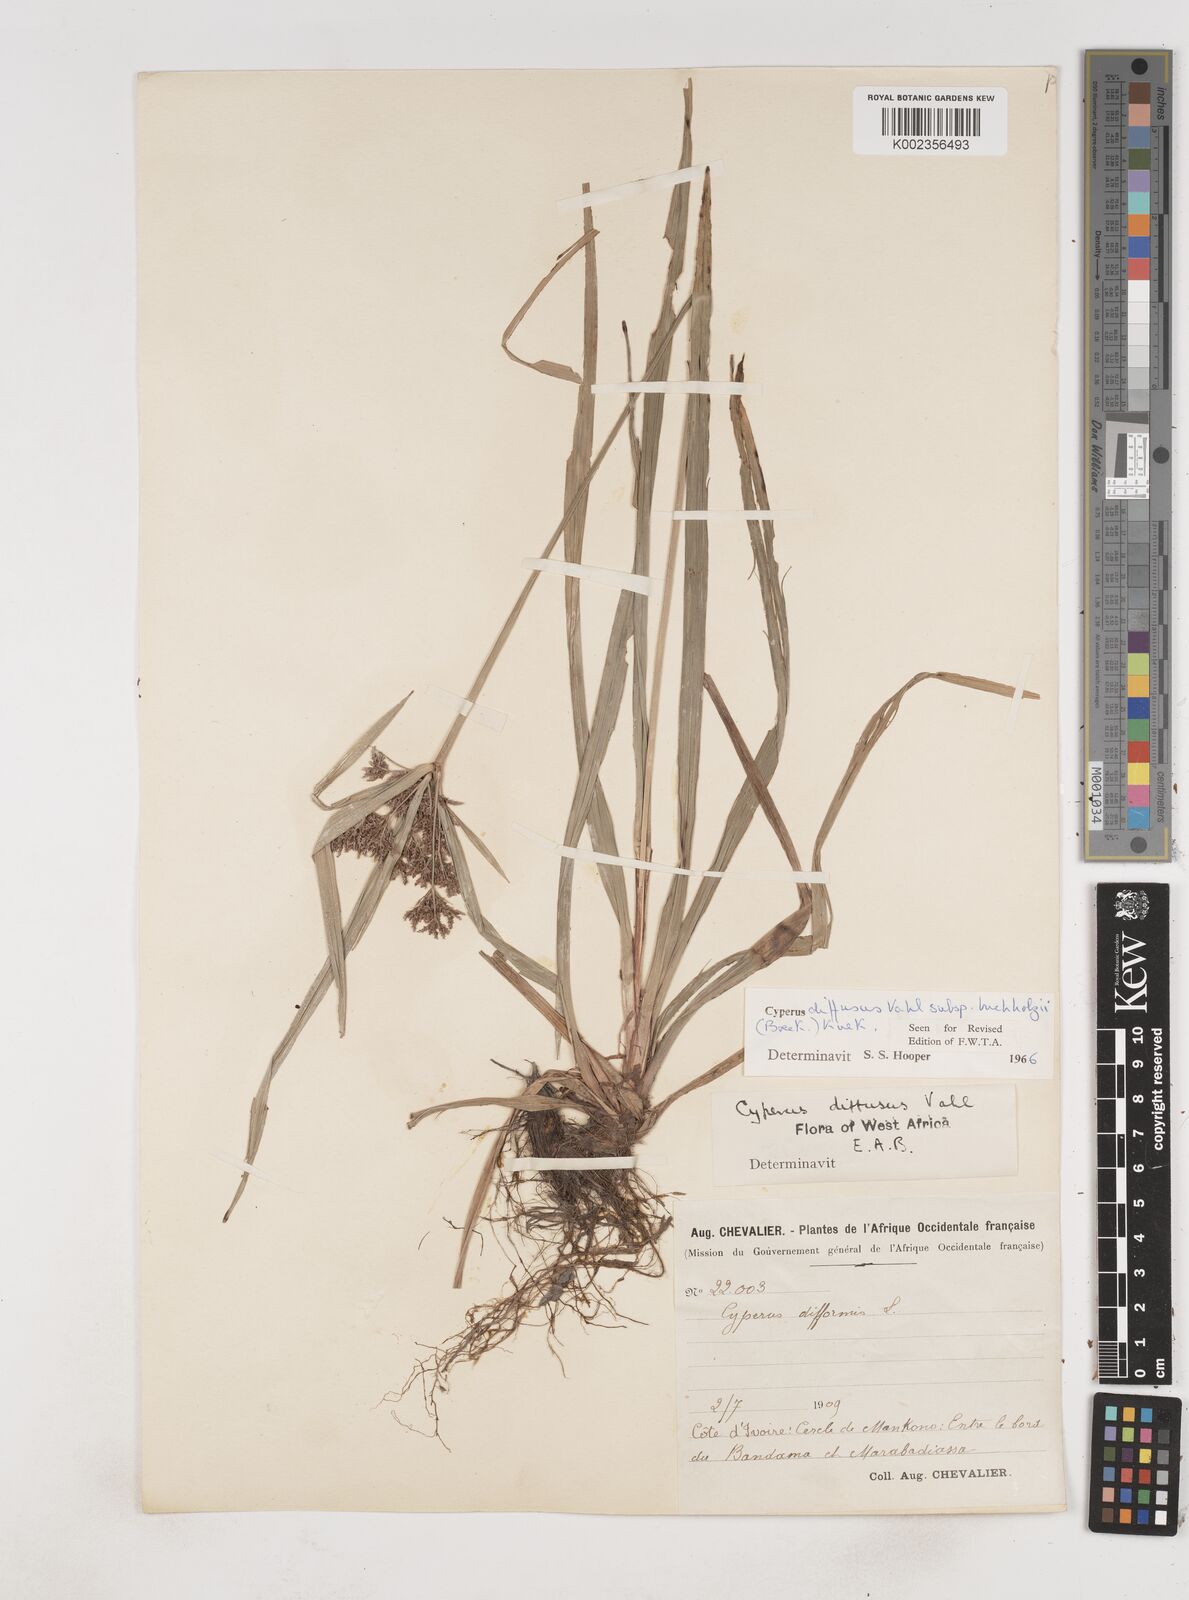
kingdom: Plantae
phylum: Tracheophyta
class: Liliopsida
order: Poales
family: Cyperaceae
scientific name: Cyperaceae
